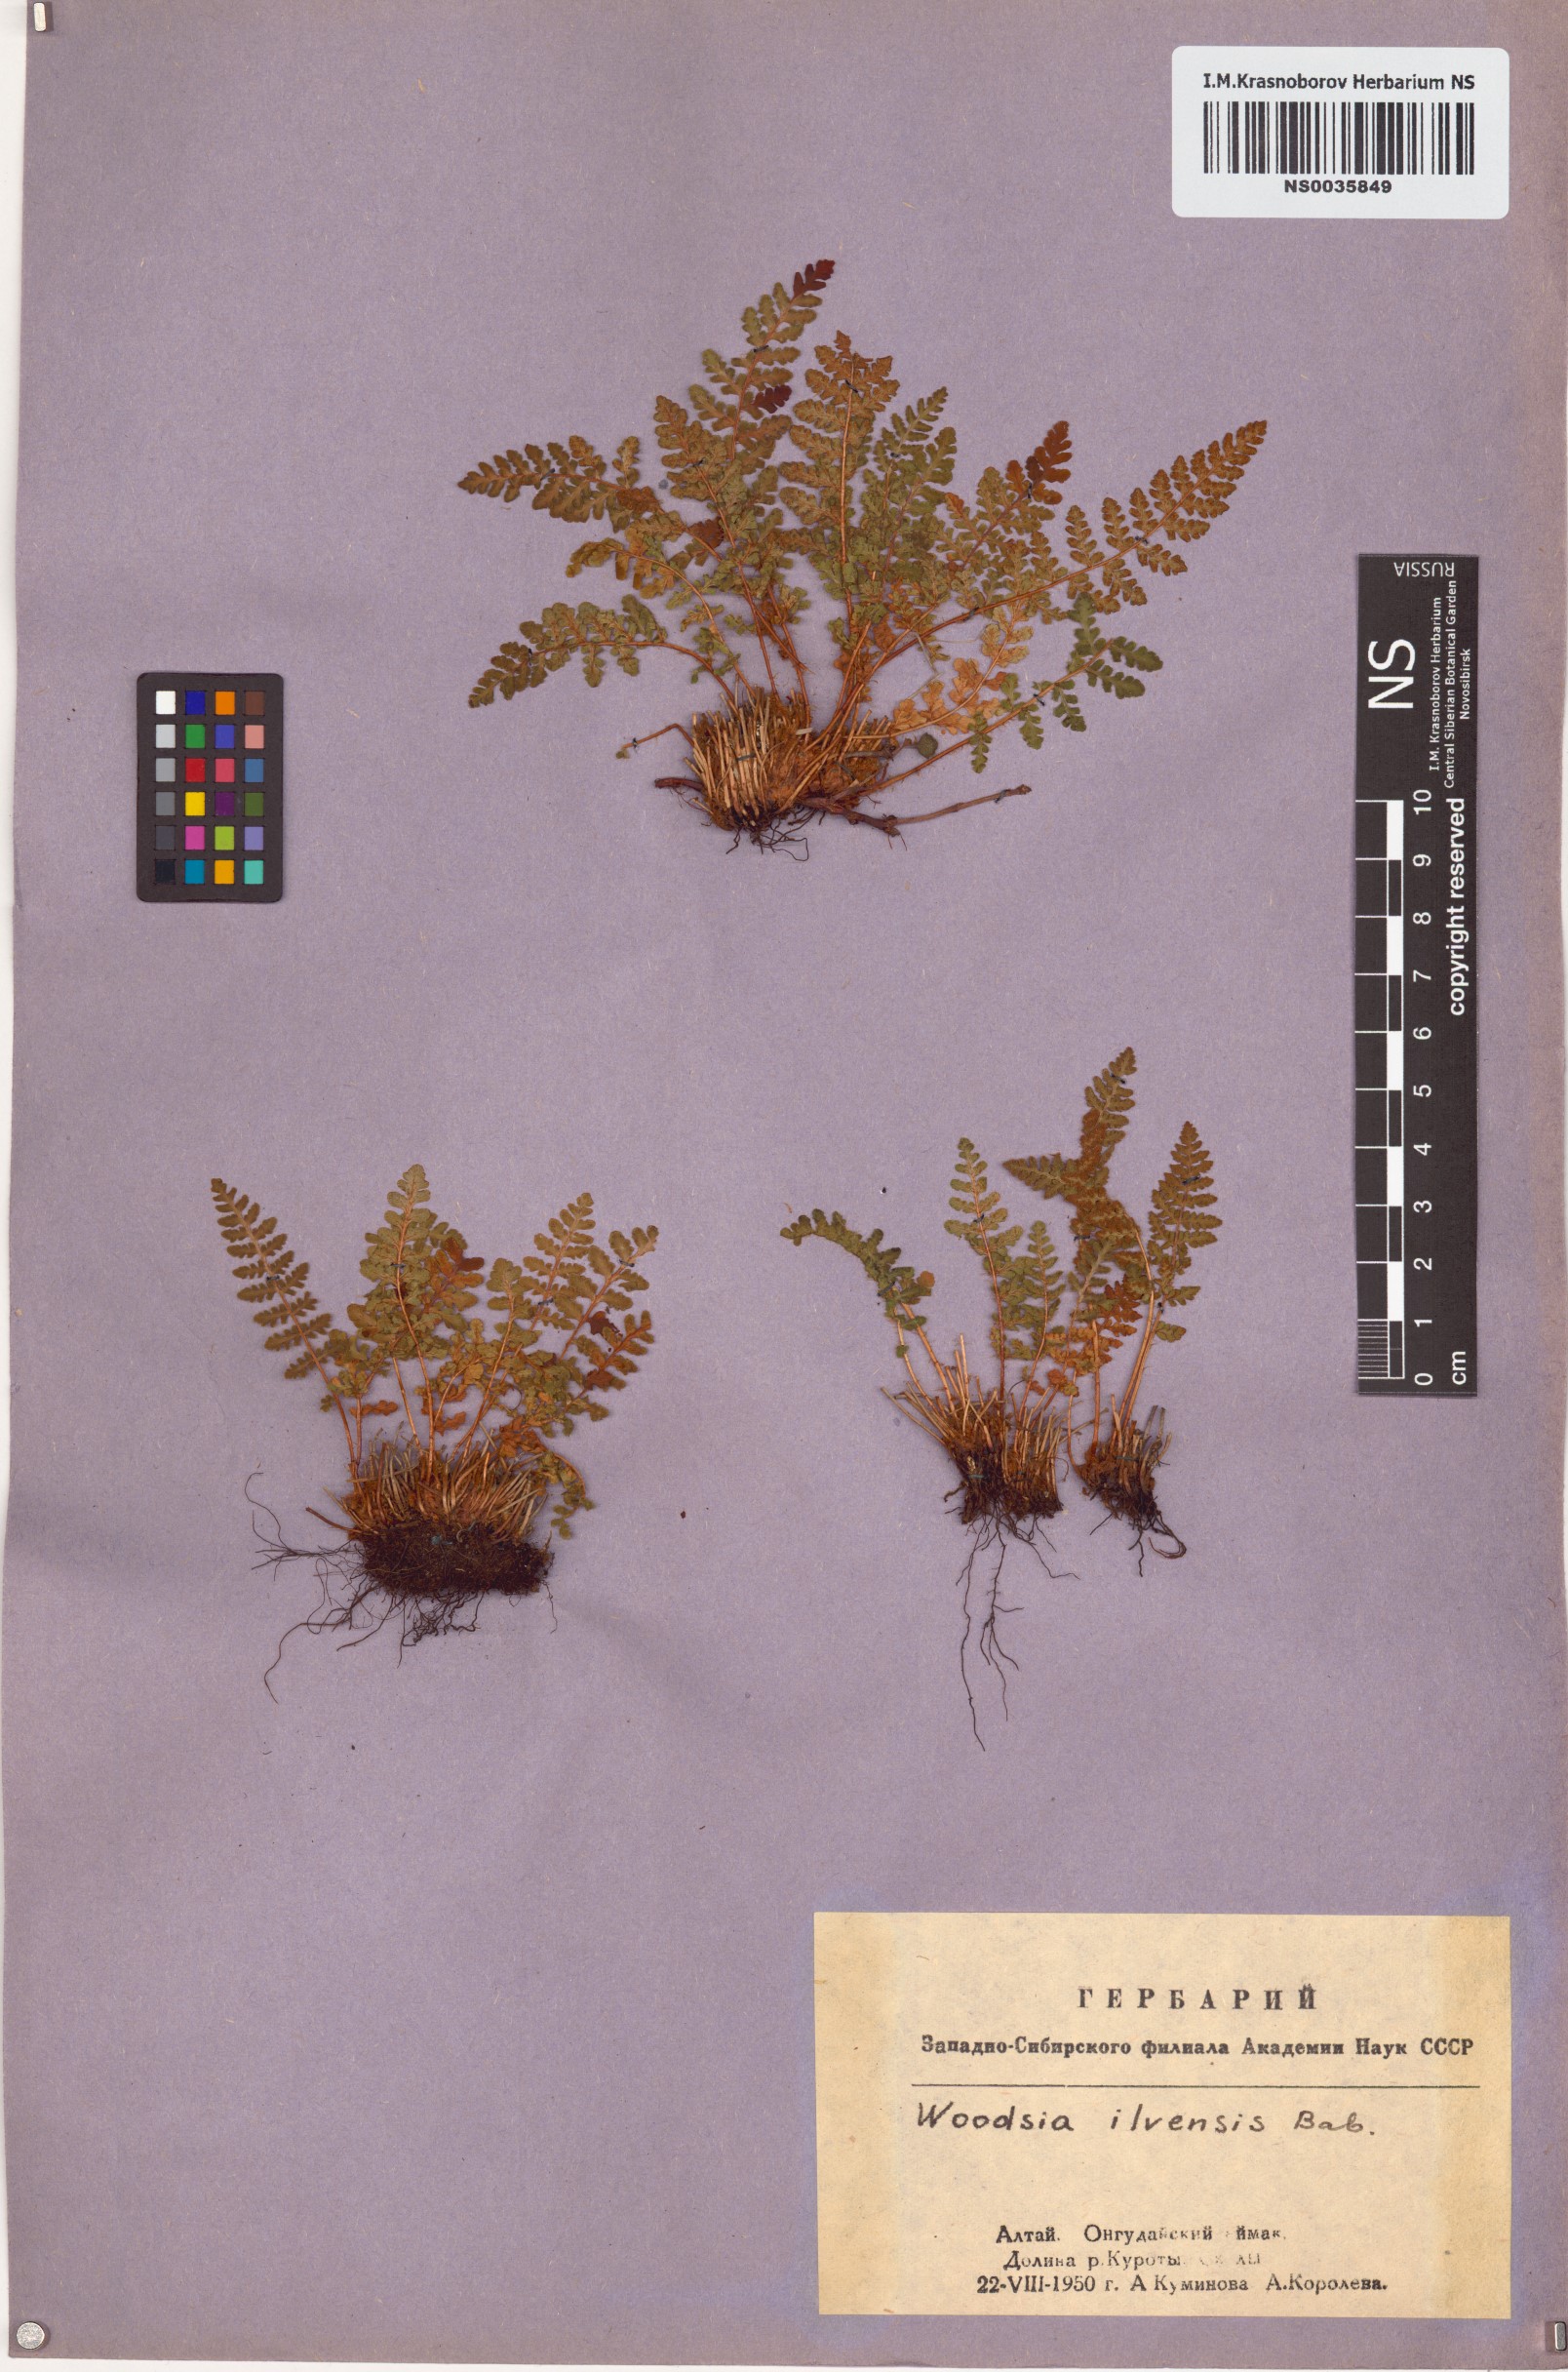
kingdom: Plantae
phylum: Tracheophyta
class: Polypodiopsida
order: Polypodiales
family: Woodsiaceae
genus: Woodsia
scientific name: Woodsia ilvensis
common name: Fragrant woodsia
